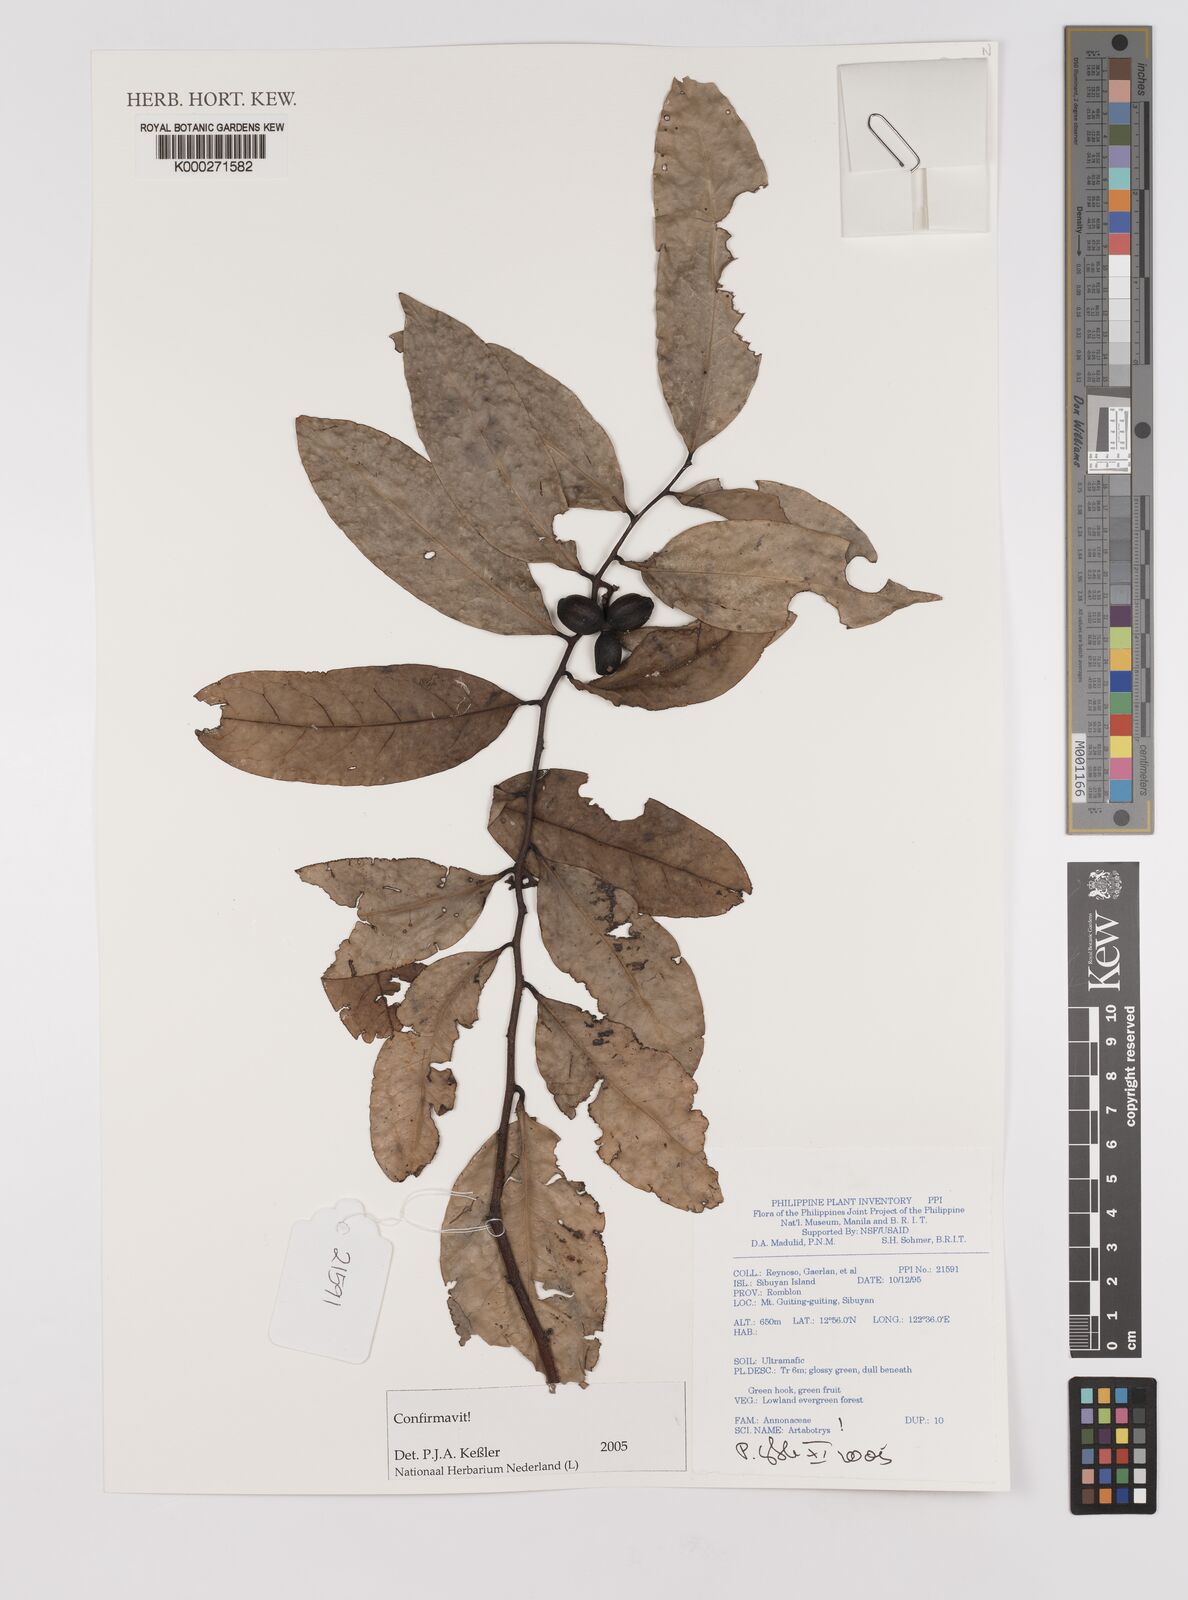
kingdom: Plantae
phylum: Tracheophyta
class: Magnoliopsida
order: Magnoliales
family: Annonaceae
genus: Artabotrys
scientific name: Artabotrys
